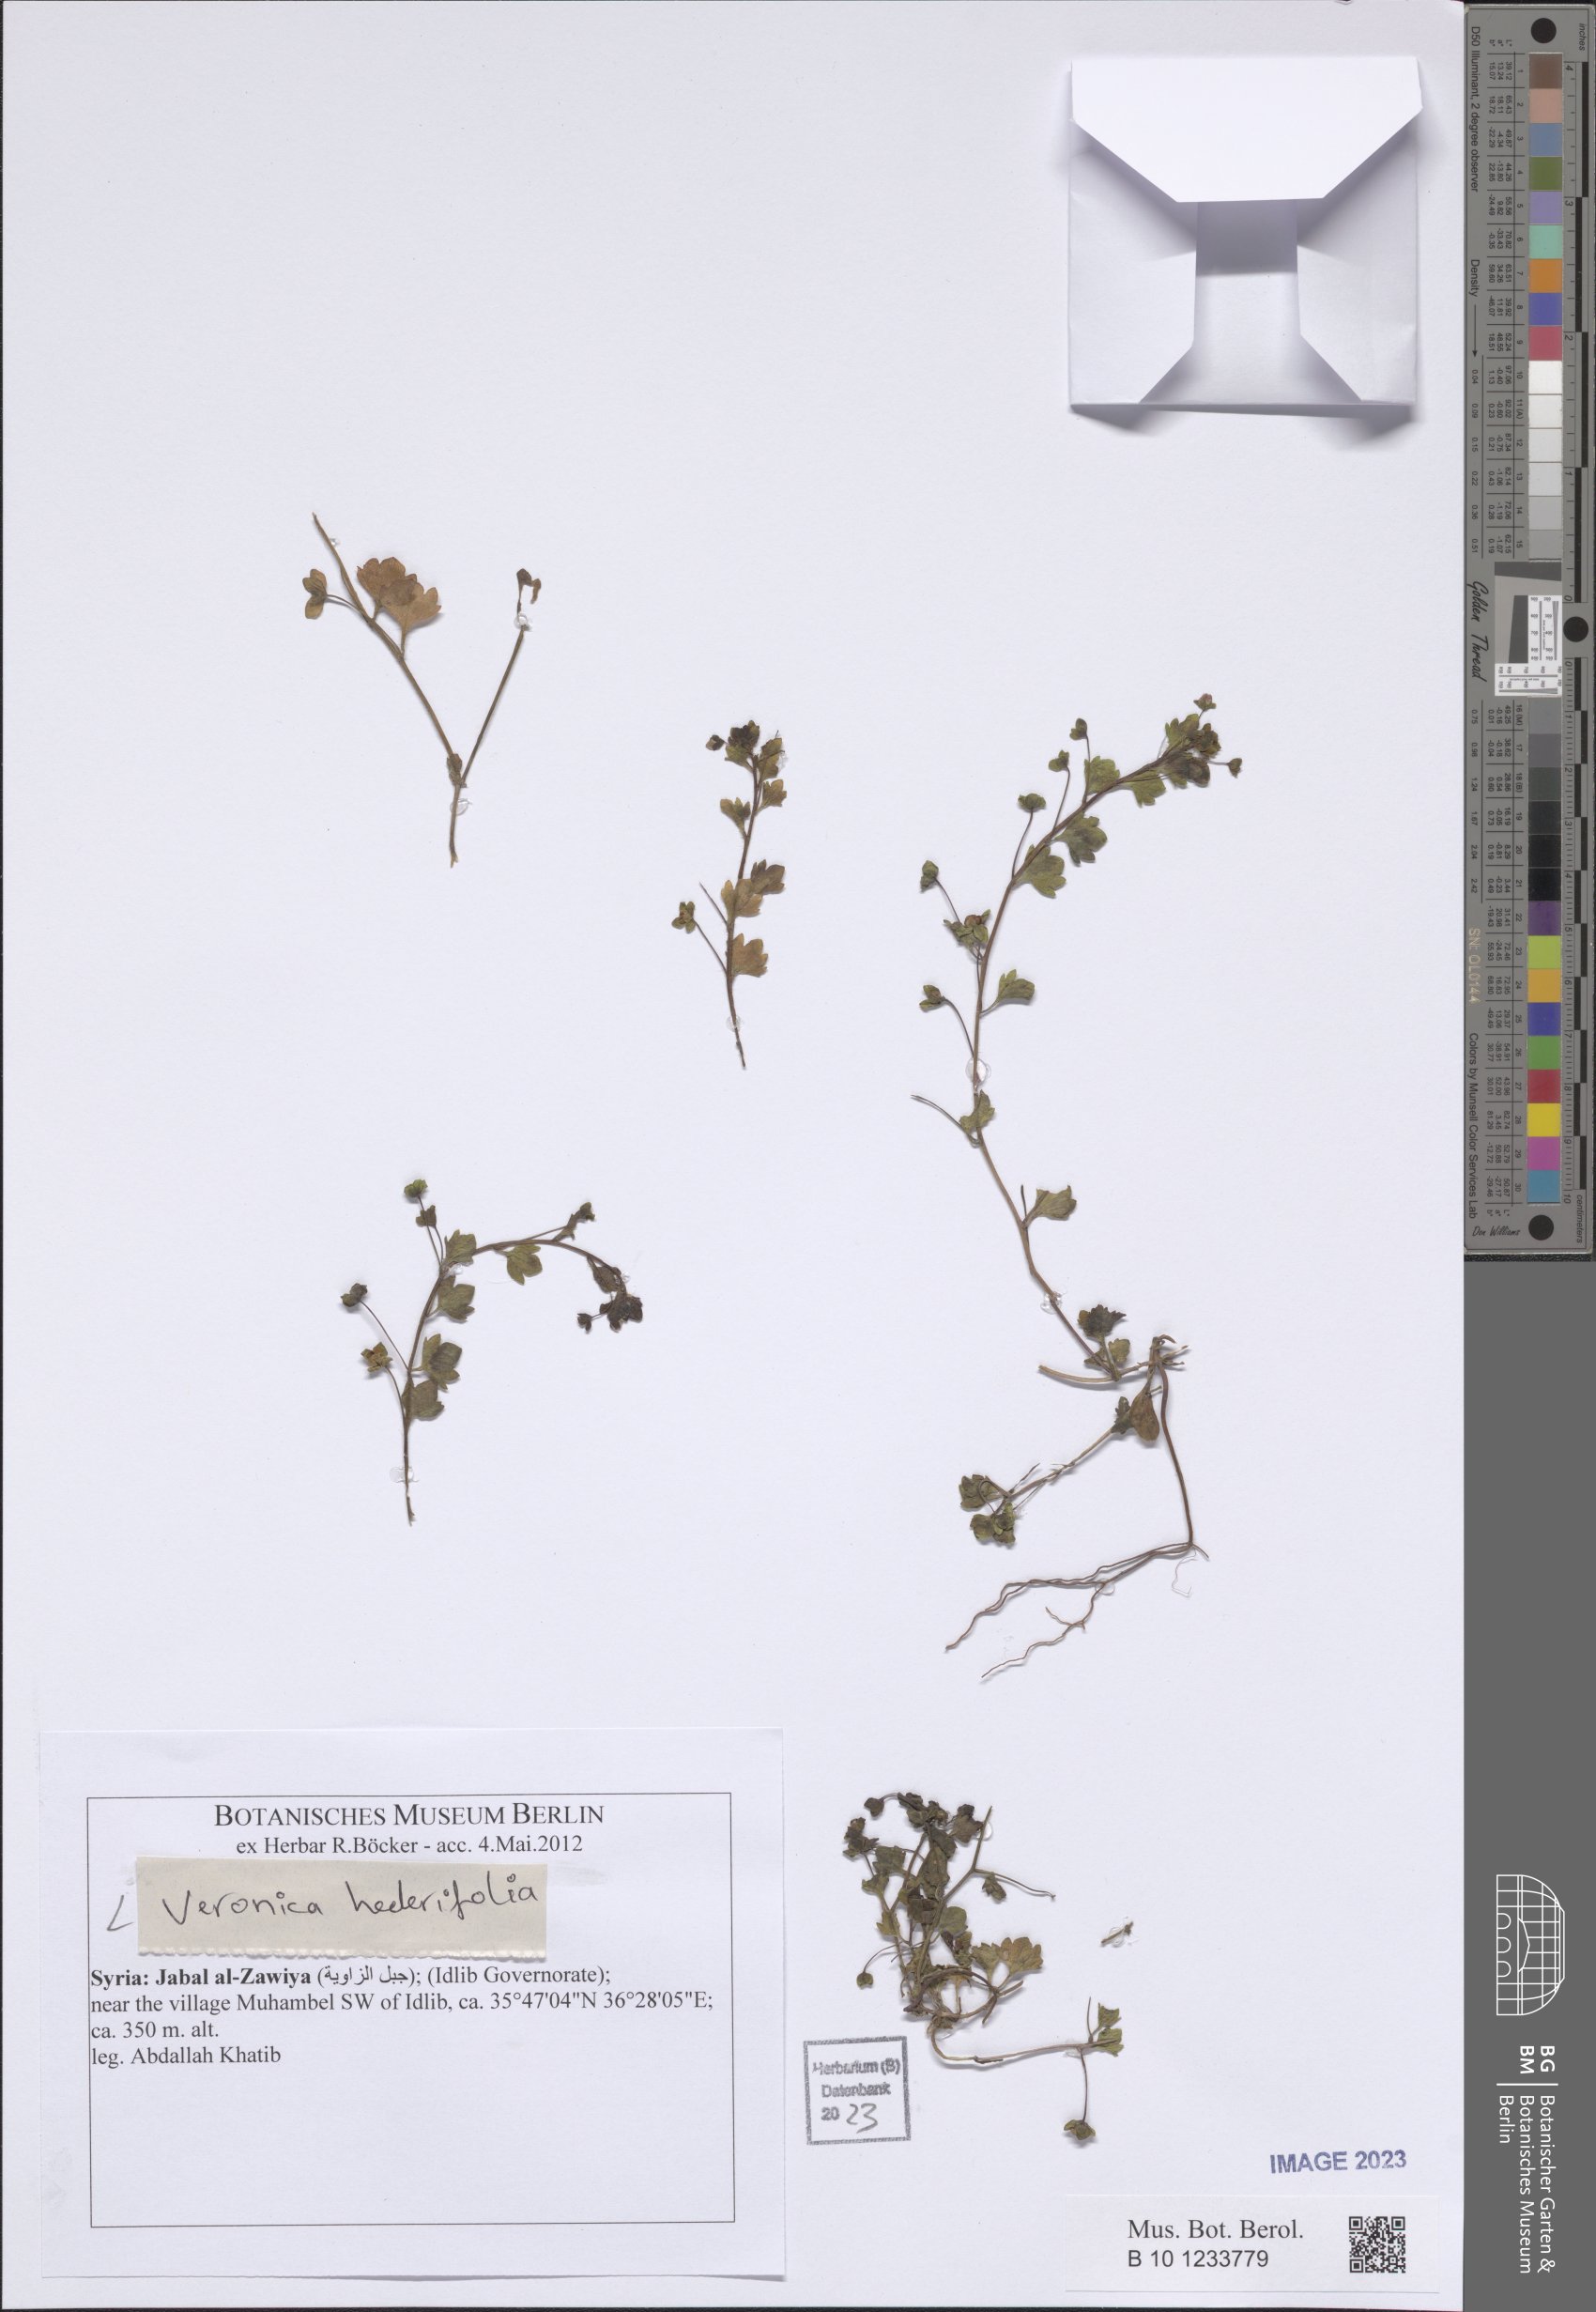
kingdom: Plantae
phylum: Tracheophyta
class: Magnoliopsida
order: Lamiales
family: Plantaginaceae
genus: Veronica
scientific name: Veronica hederifolia
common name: Ivy-leaved speedwell
